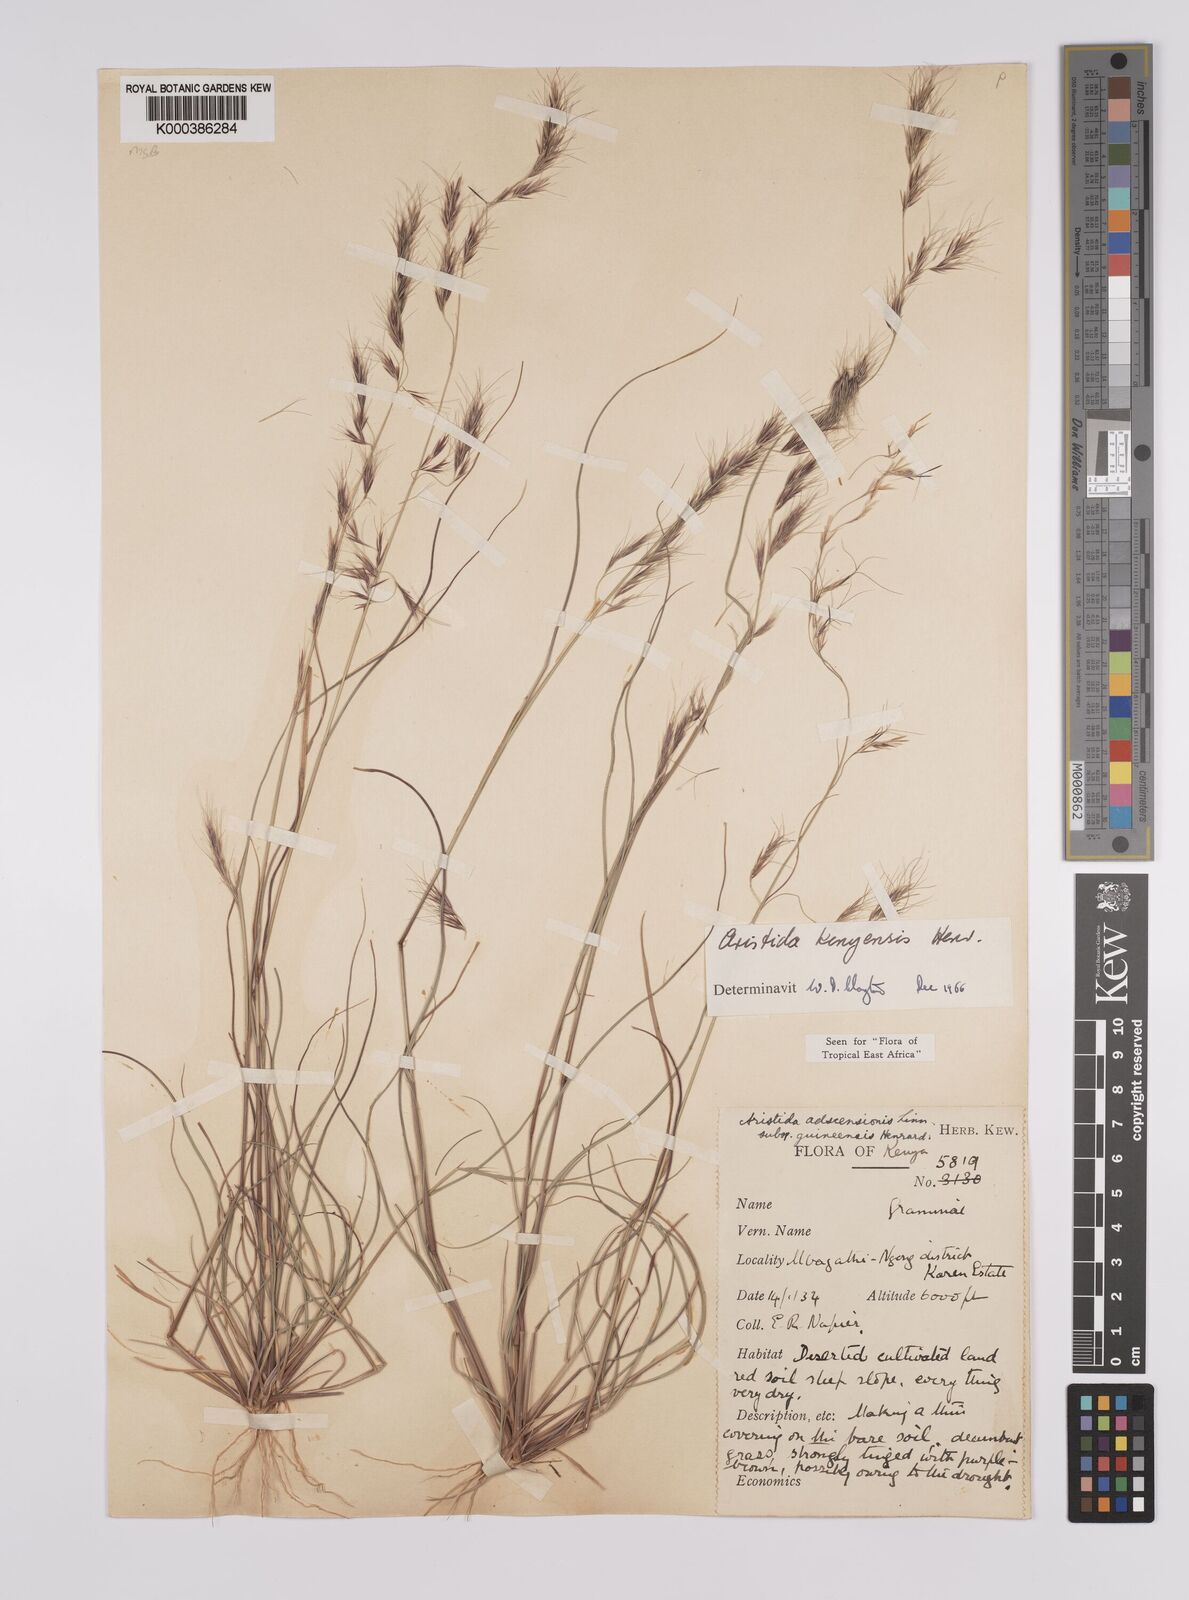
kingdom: Plantae
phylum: Tracheophyta
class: Liliopsida
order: Poales
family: Poaceae
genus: Aristida
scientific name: Aristida kenyensis
